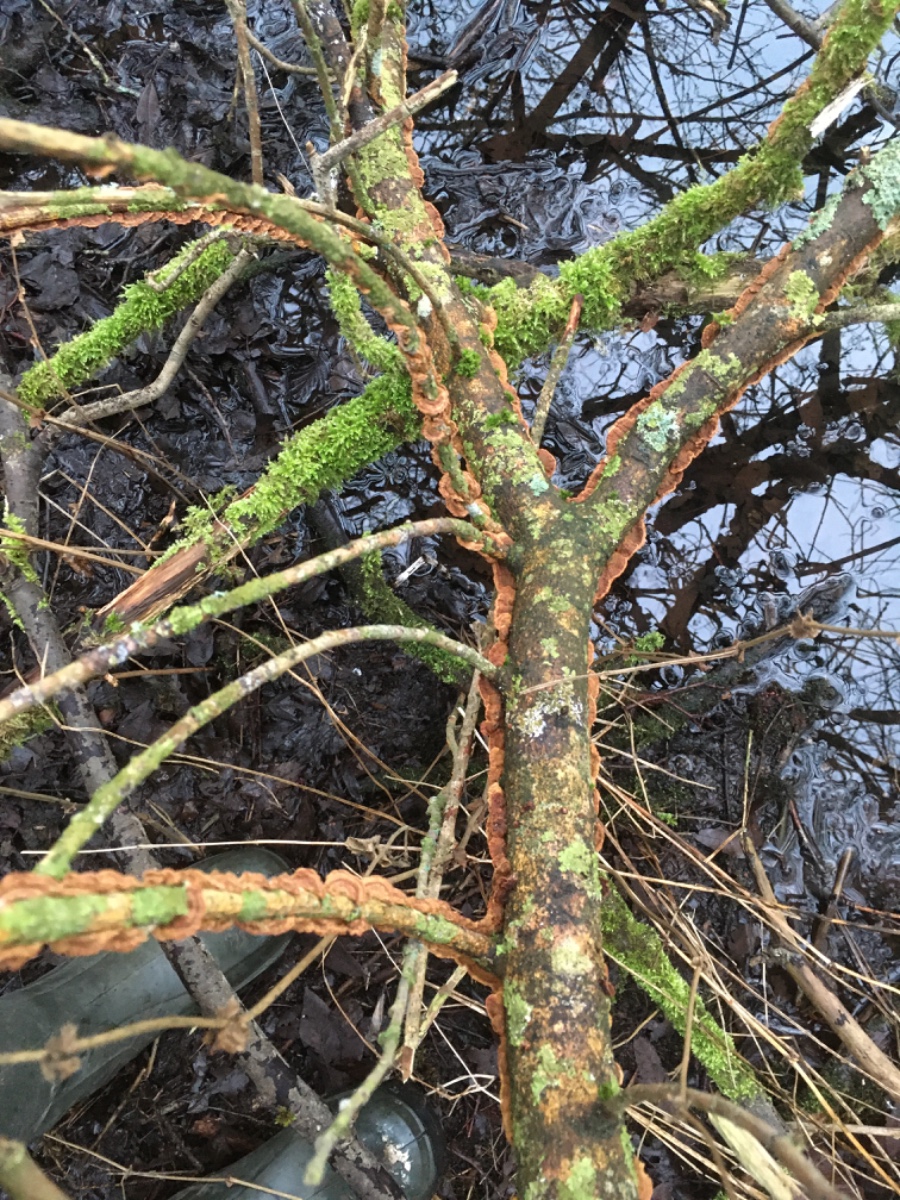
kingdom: Fungi
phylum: Basidiomycota
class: Agaricomycetes
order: Hymenochaetales
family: Hymenochaetaceae
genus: Hydnoporia
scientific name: Hydnoporia tabacina
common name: tobaksbrun ruslædersvamp
